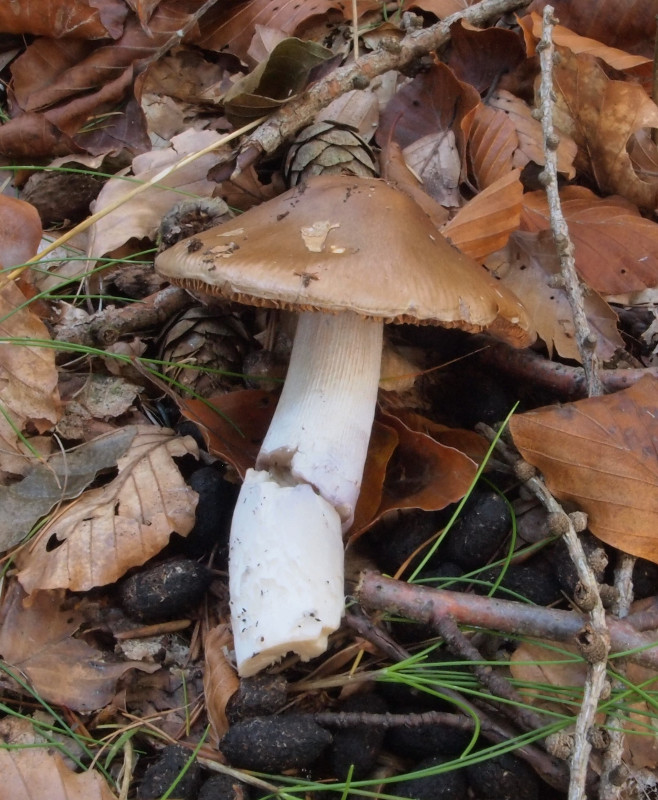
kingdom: Fungi
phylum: Basidiomycota
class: Agaricomycetes
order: Agaricales
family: Cortinariaceae
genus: Cortinarius
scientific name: Cortinarius elatior
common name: høj slørhat
